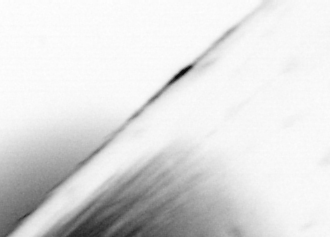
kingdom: Animalia
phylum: Chordata
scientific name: Chordata
